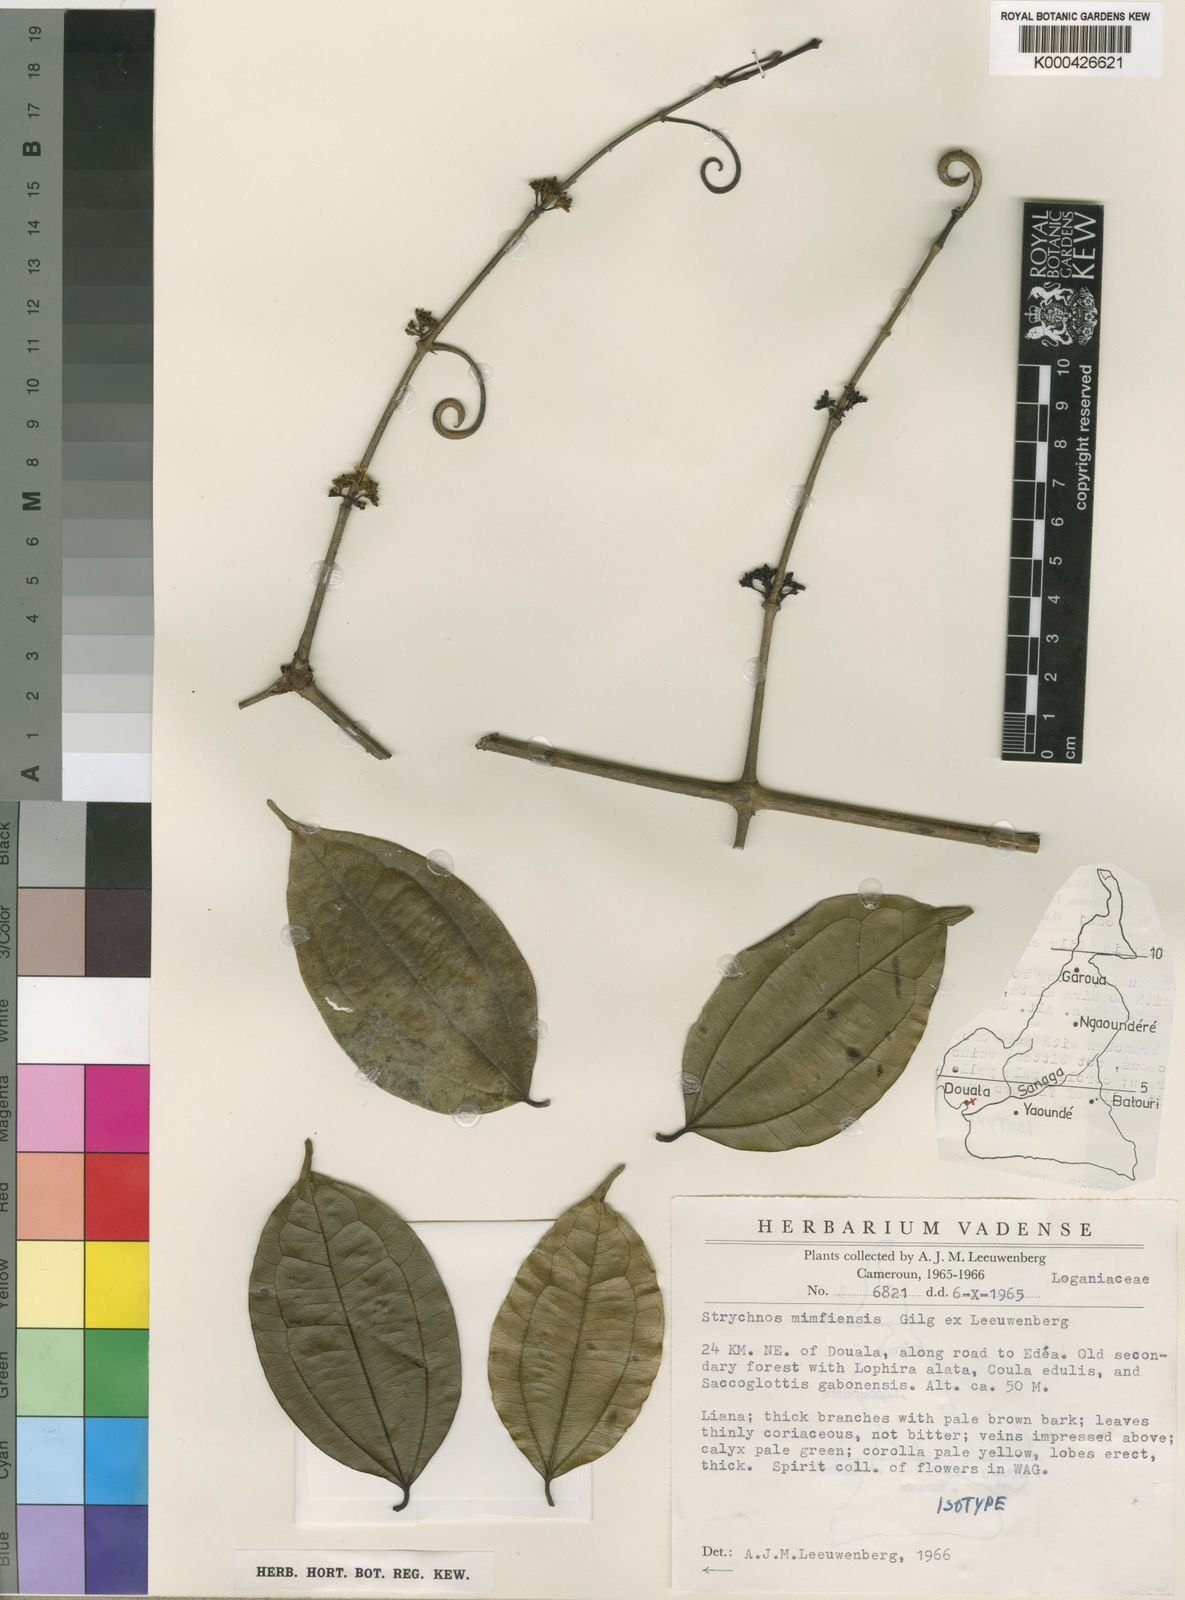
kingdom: Plantae
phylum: Tracheophyta
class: Magnoliopsida
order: Gentianales
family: Loganiaceae
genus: Strychnos
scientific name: Strychnos mimfiensis
